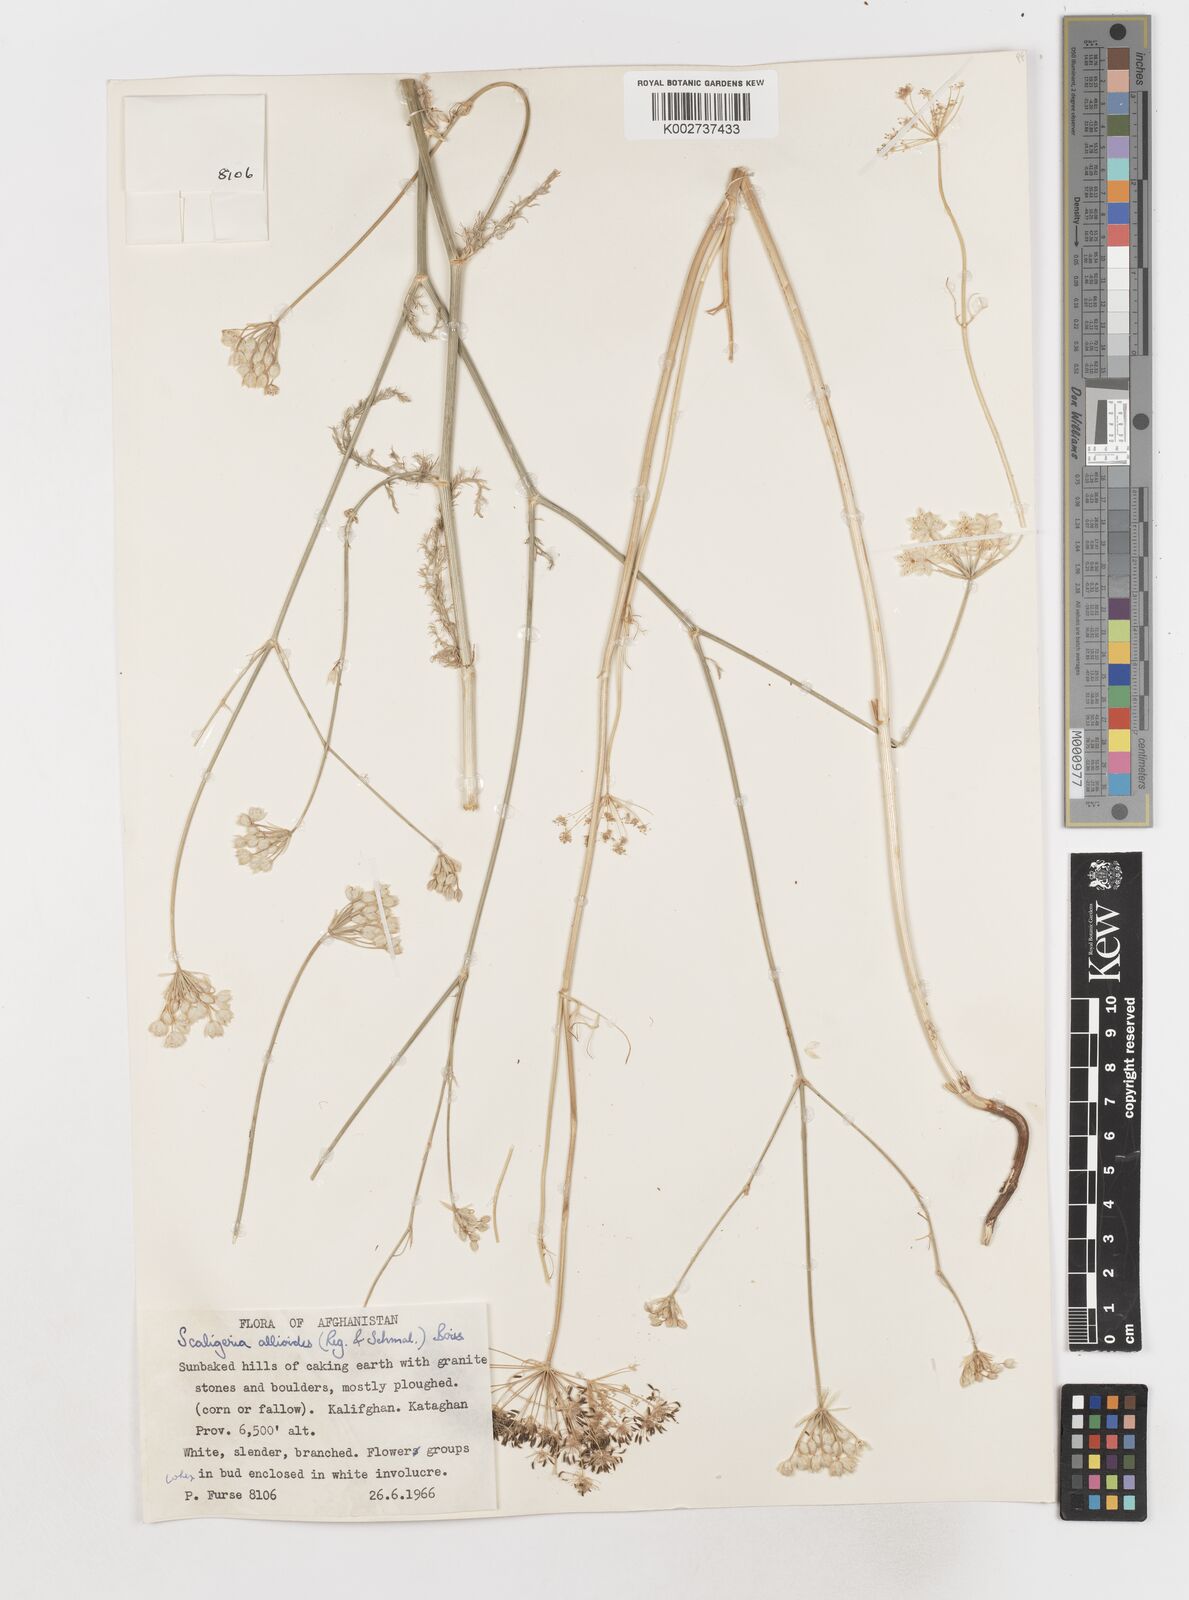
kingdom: Plantae
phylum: Tracheophyta
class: Magnoliopsida
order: Apiales
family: Apiaceae
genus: Scaligeria
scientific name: Scaligeria allioides
